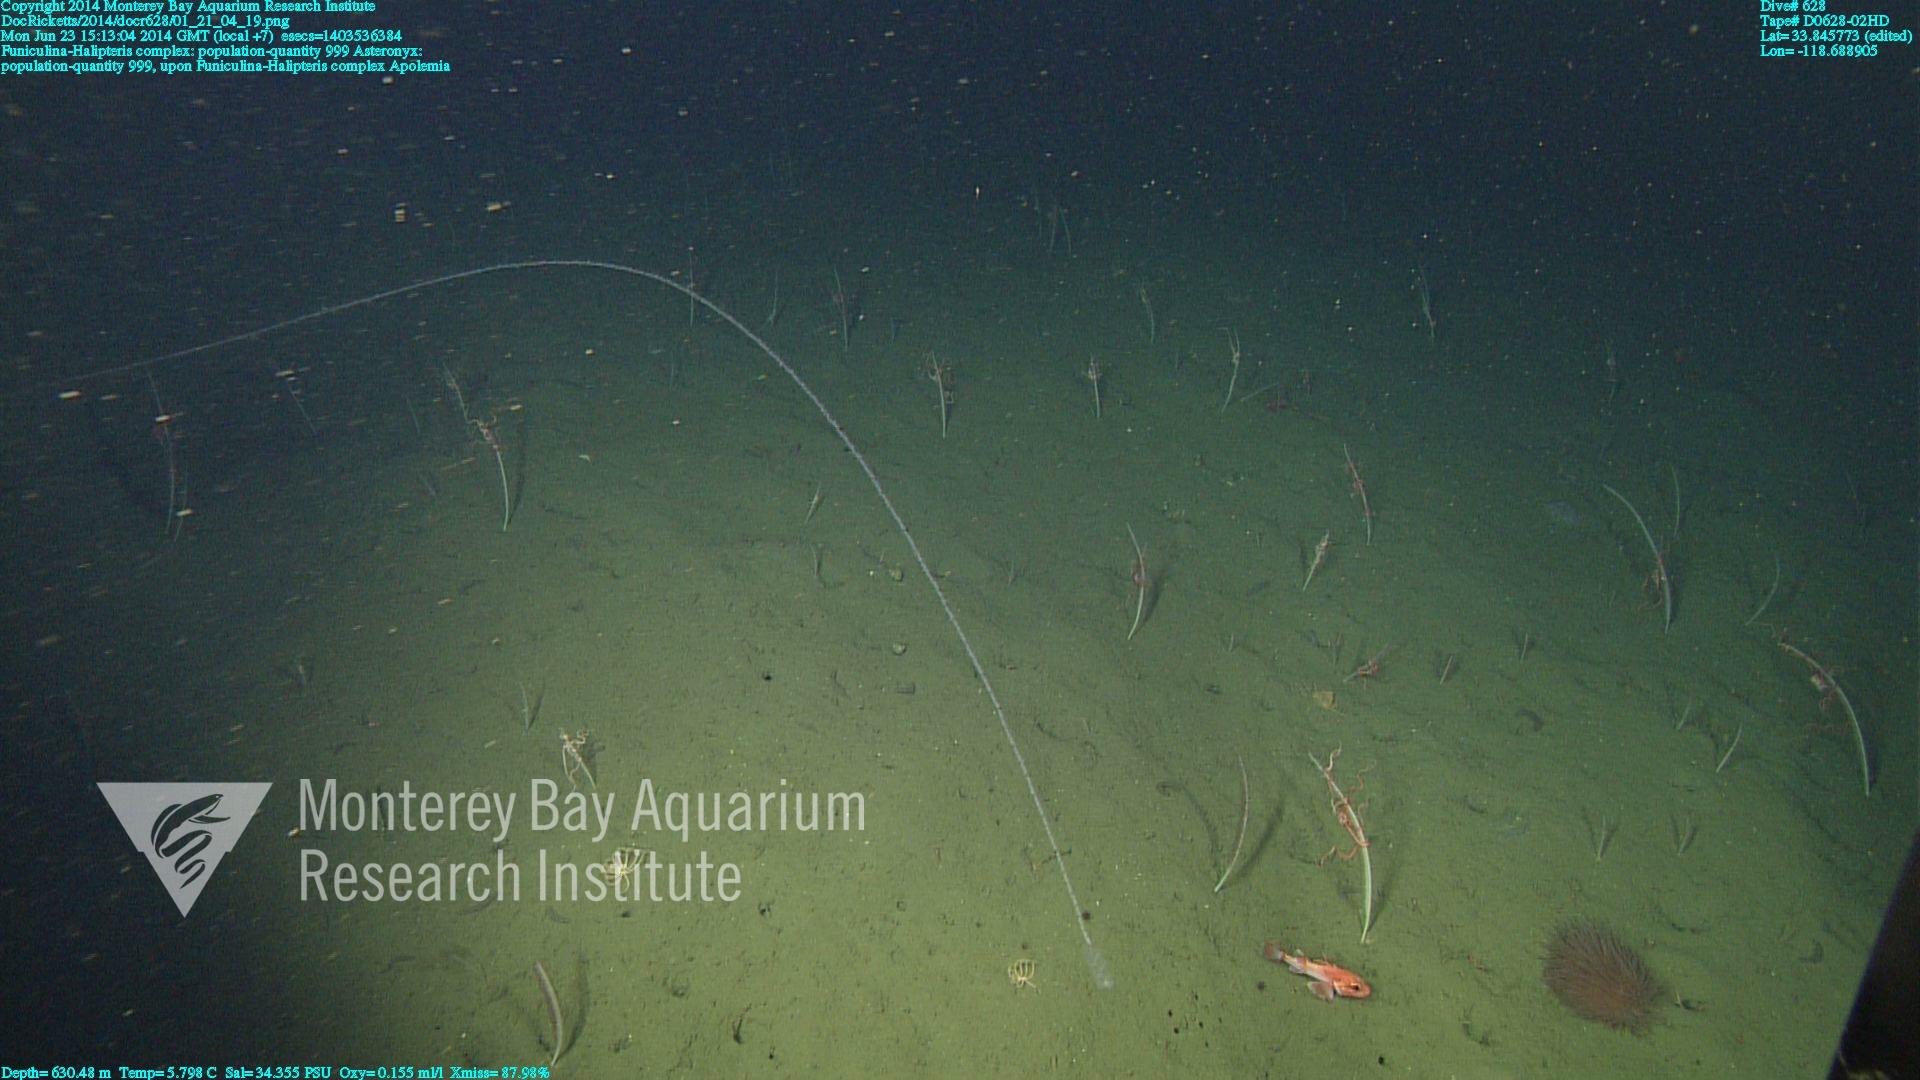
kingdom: Animalia
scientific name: Animalia
